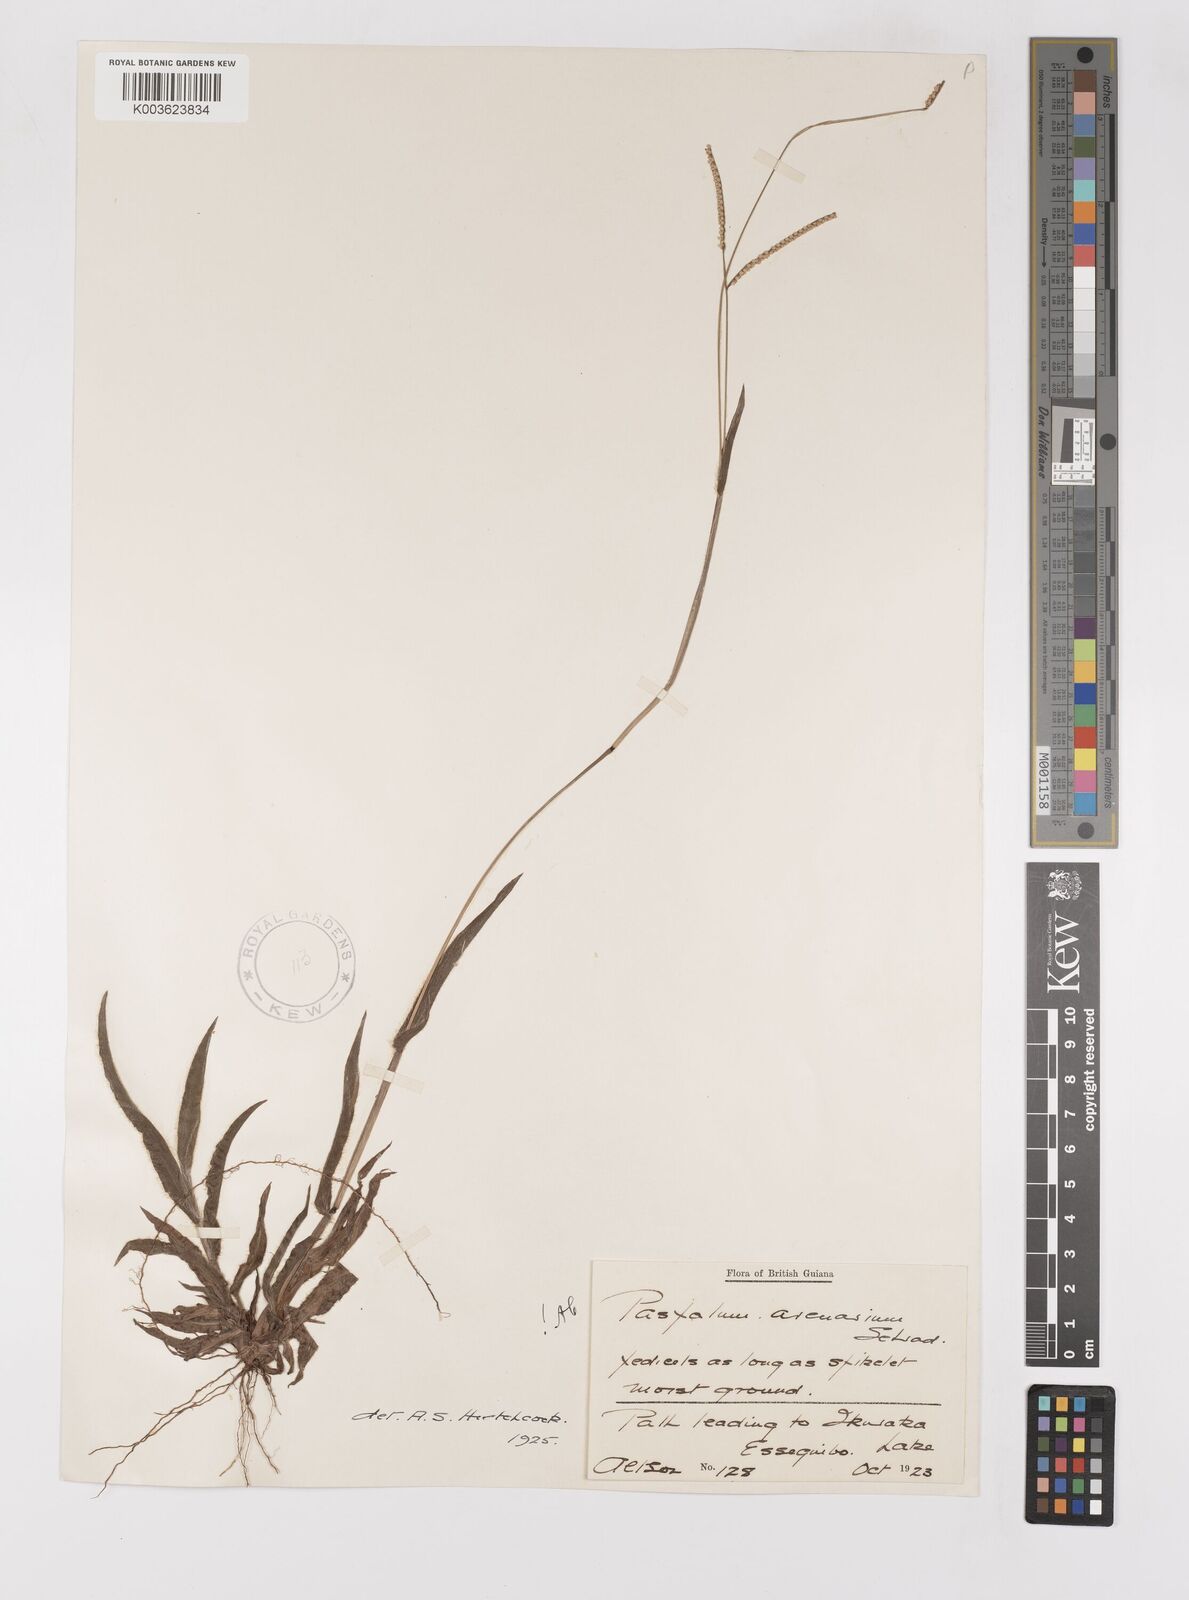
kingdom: Plantae
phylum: Tracheophyta
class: Liliopsida
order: Poales
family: Poaceae
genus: Paspalum
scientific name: Paspalum arenarium
